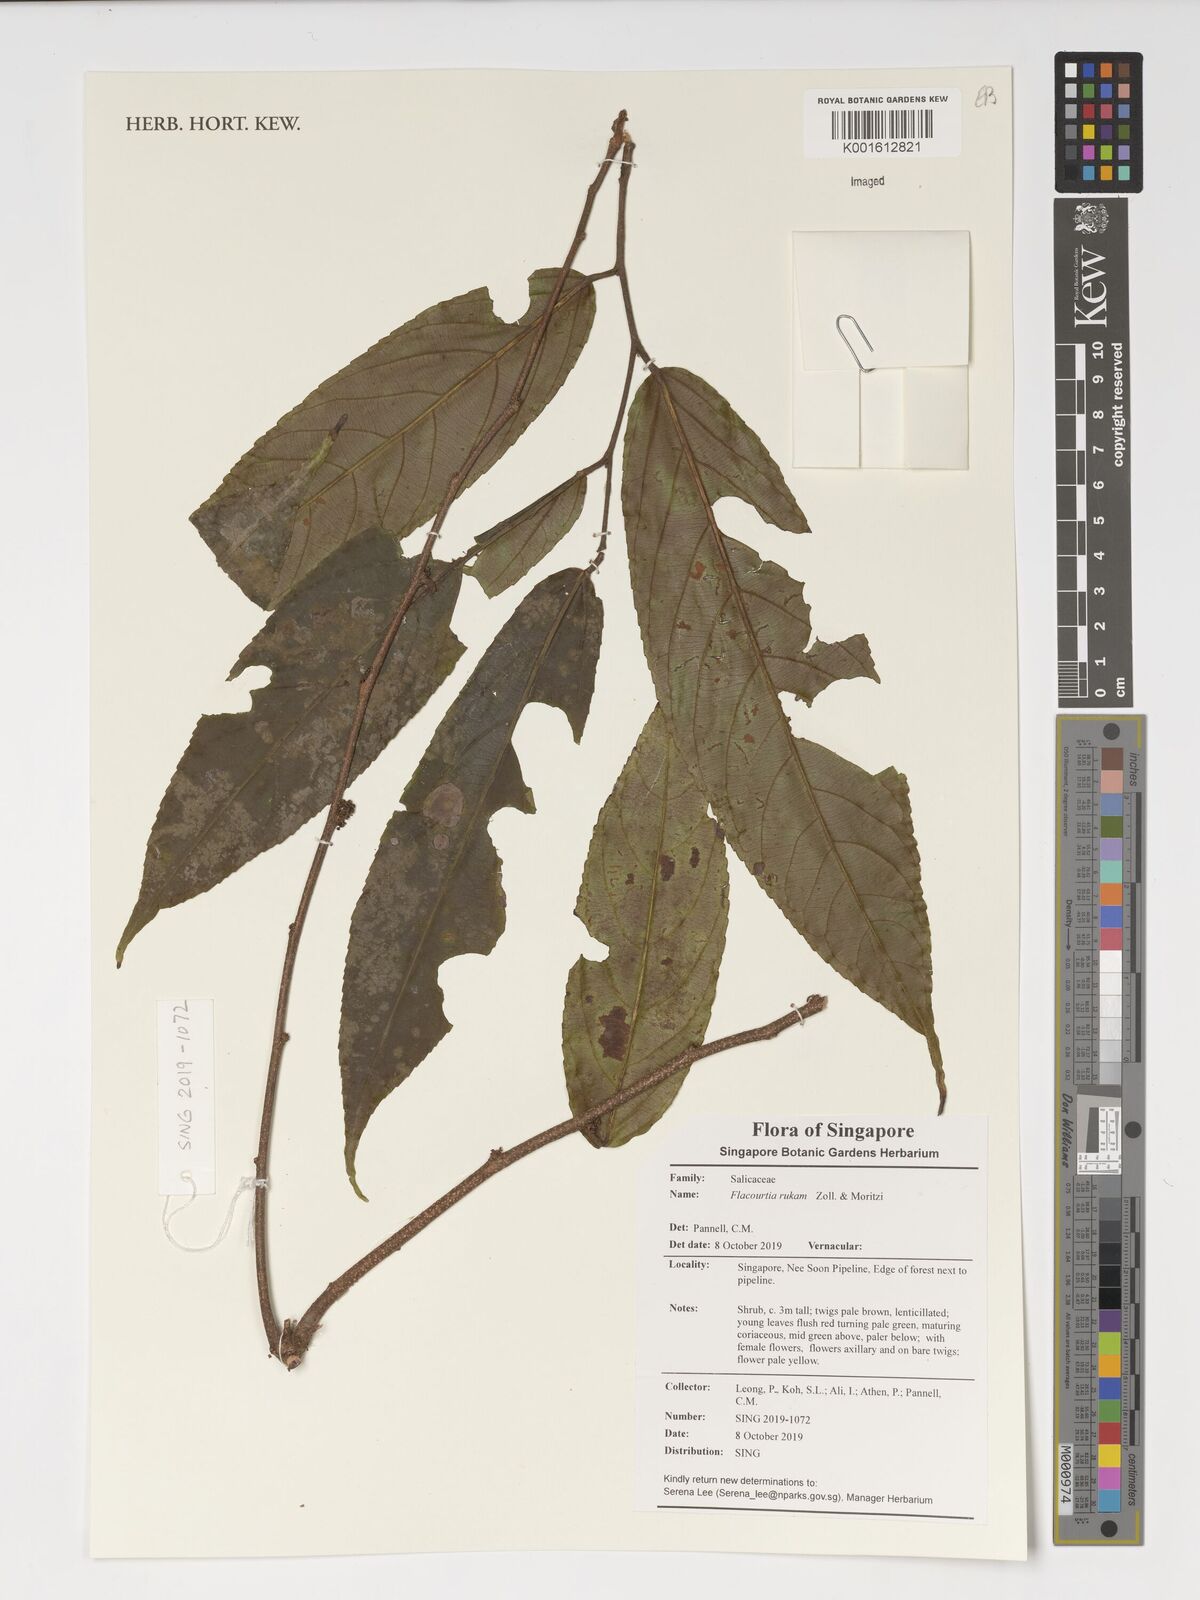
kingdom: Plantae
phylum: Tracheophyta
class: Magnoliopsida
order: Malpighiales
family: Salicaceae
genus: Flacourtia
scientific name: Flacourtia rukam
